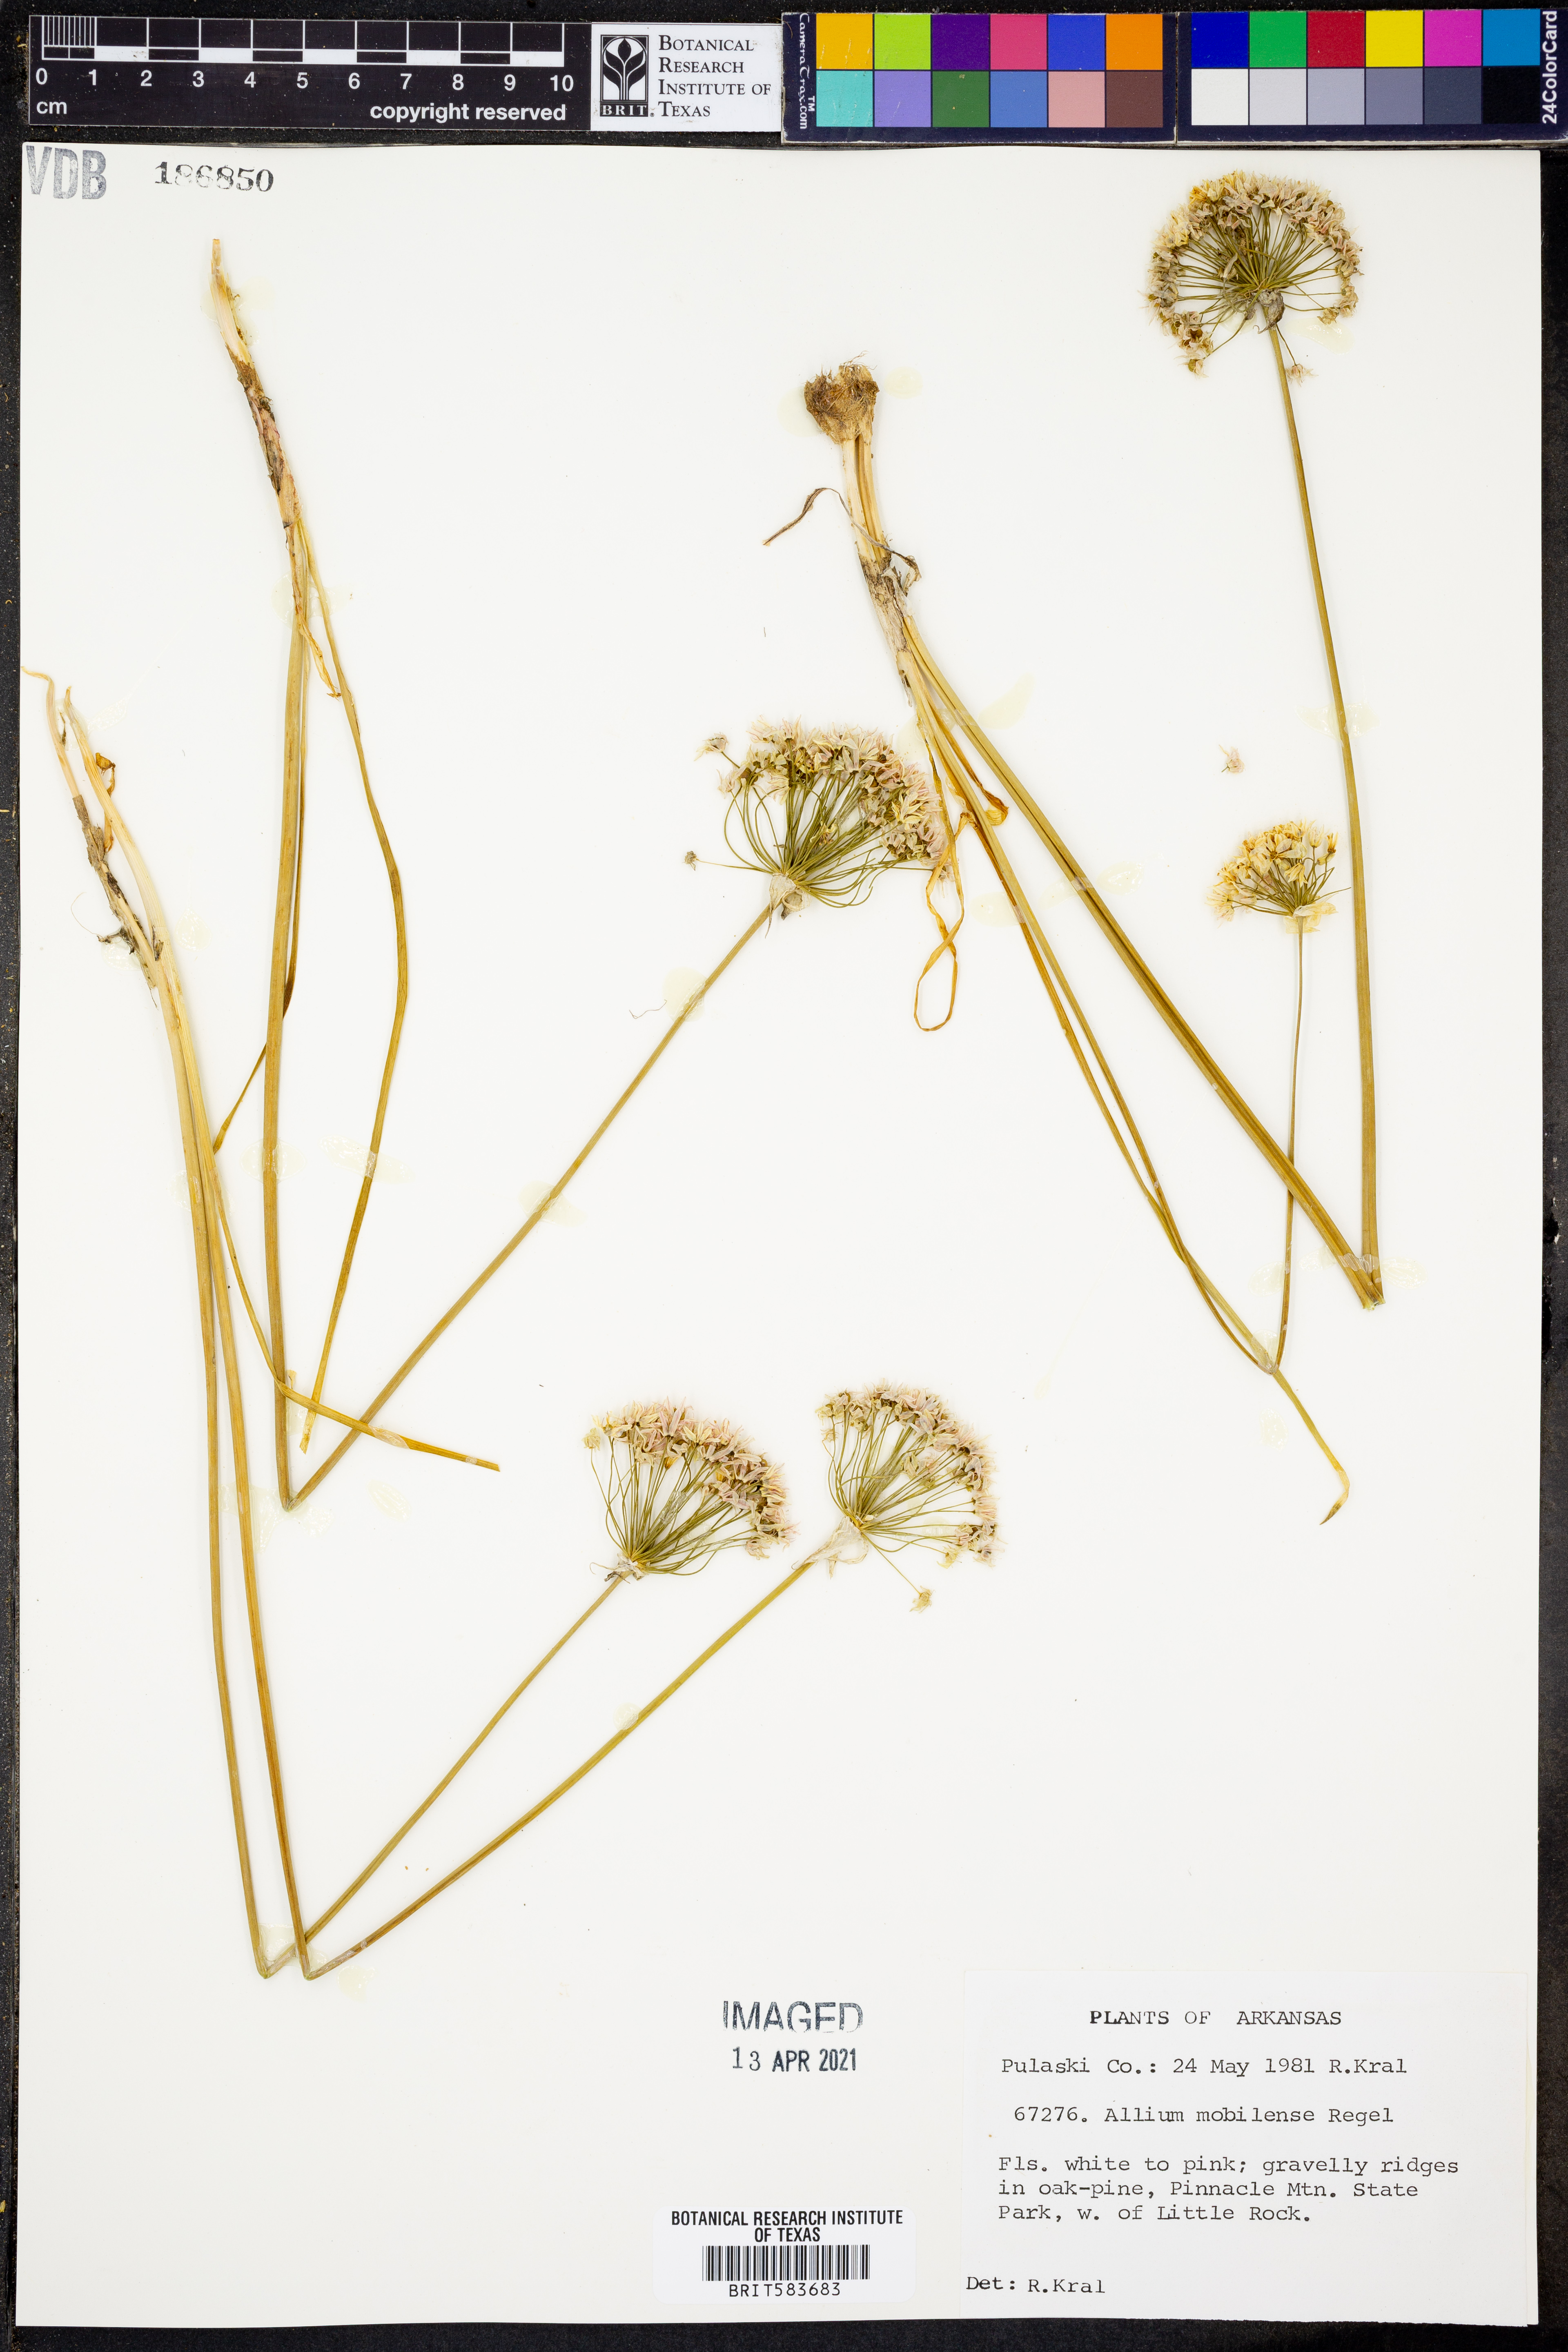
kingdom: Plantae
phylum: Tracheophyta
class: Liliopsida
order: Asparagales
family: Amaryllidaceae
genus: Allium
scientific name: Allium canadense
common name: Meadow garlic
